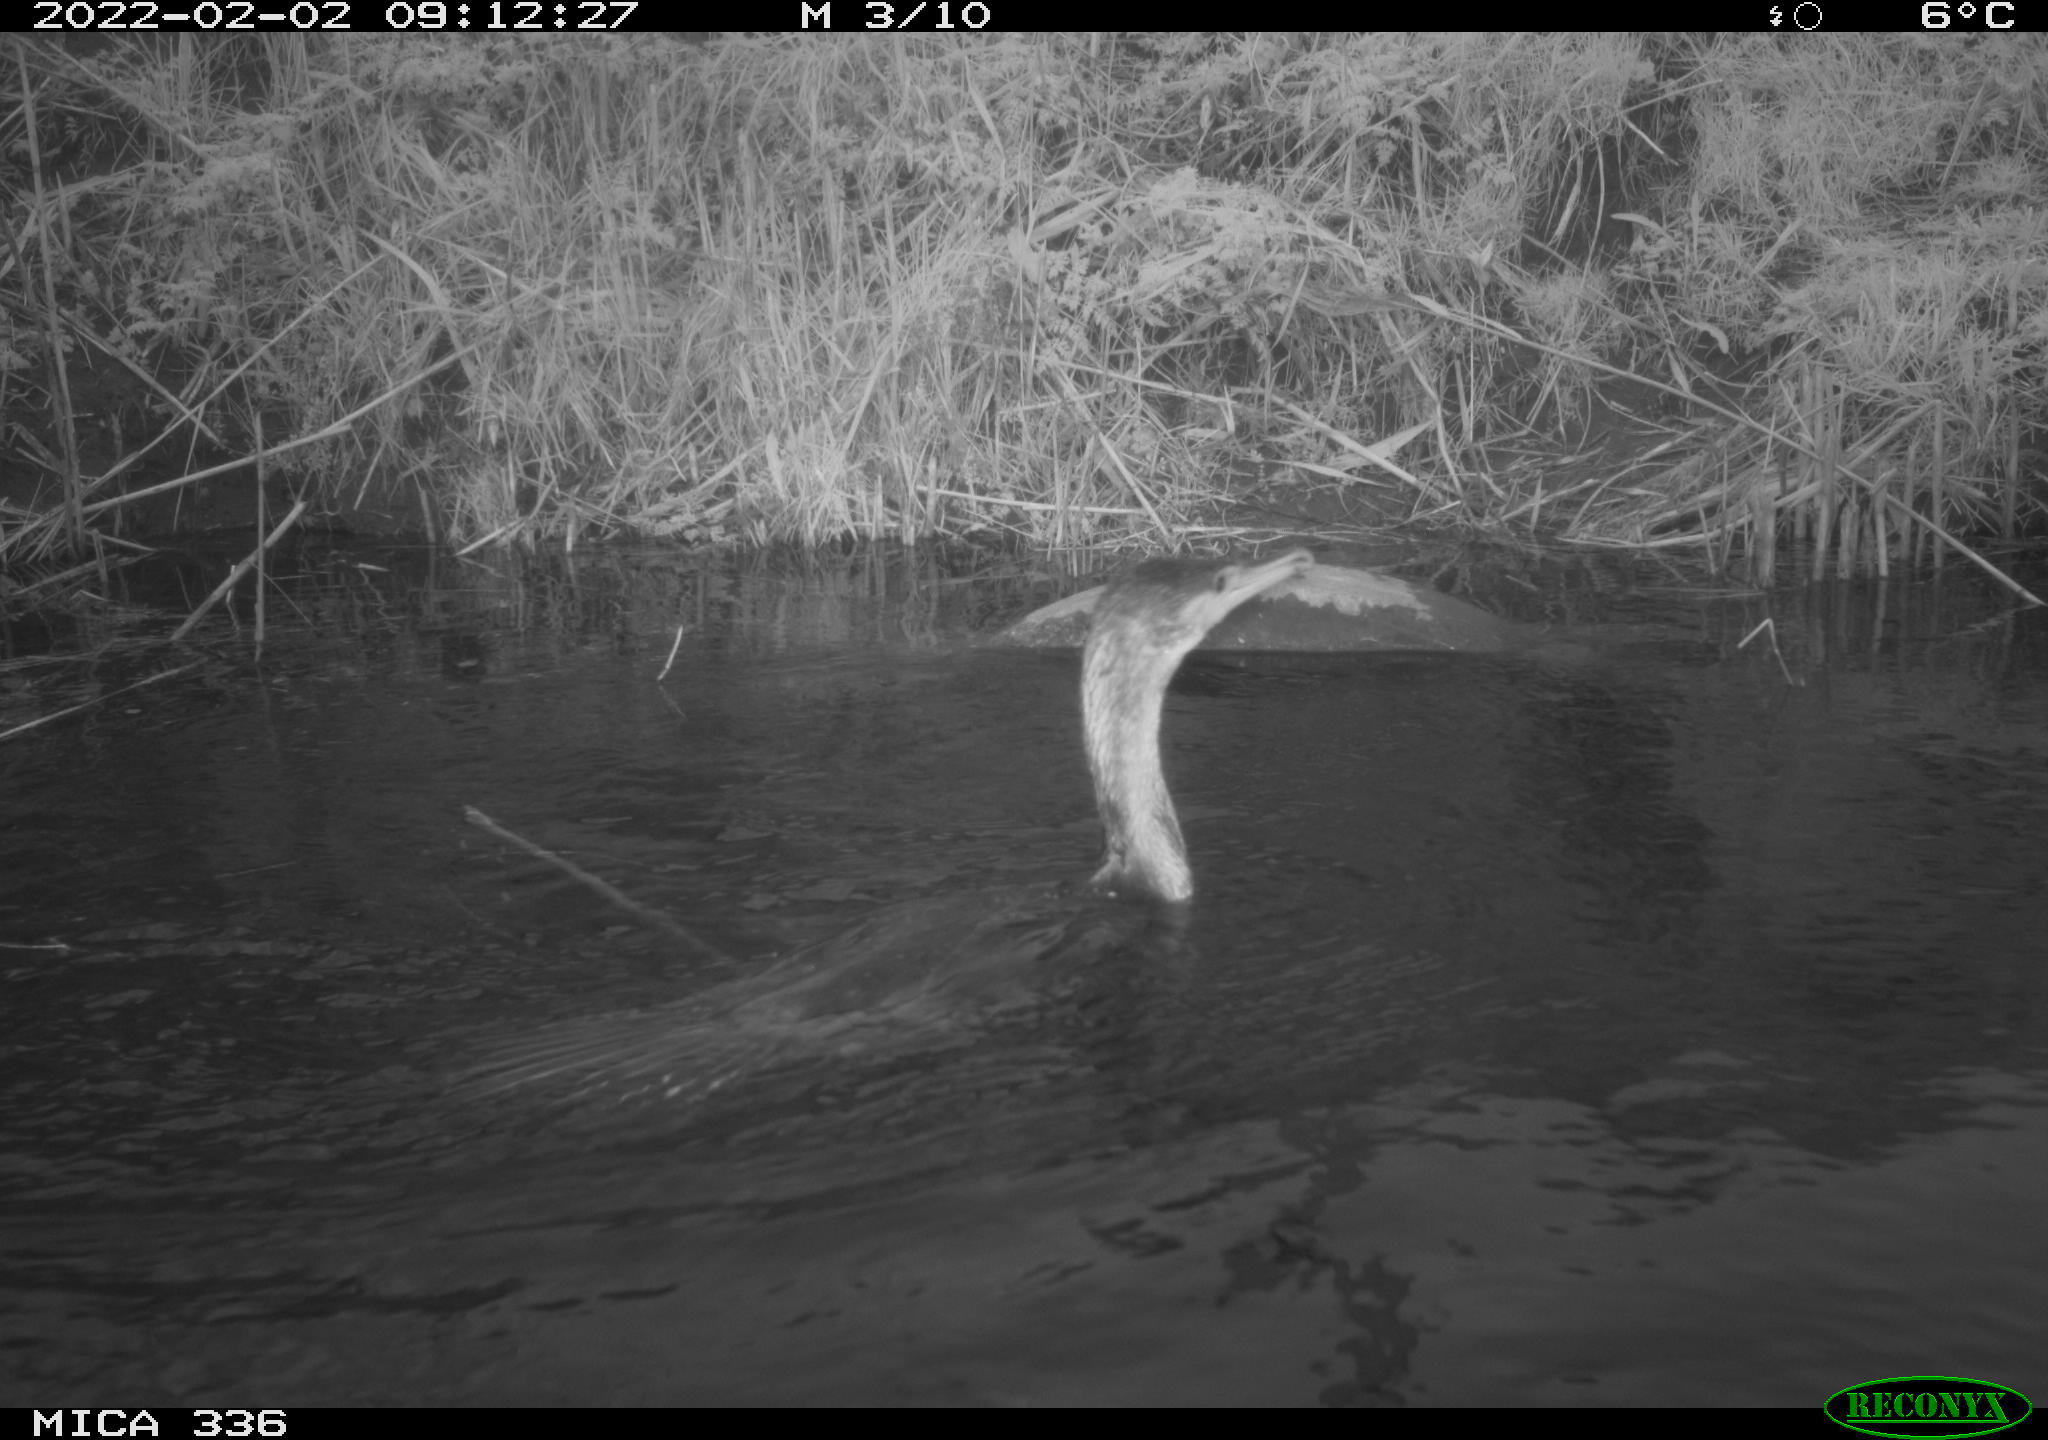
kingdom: Animalia
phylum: Chordata
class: Aves
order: Suliformes
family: Phalacrocoracidae
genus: Phalacrocorax
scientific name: Phalacrocorax carbo
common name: Great cormorant
